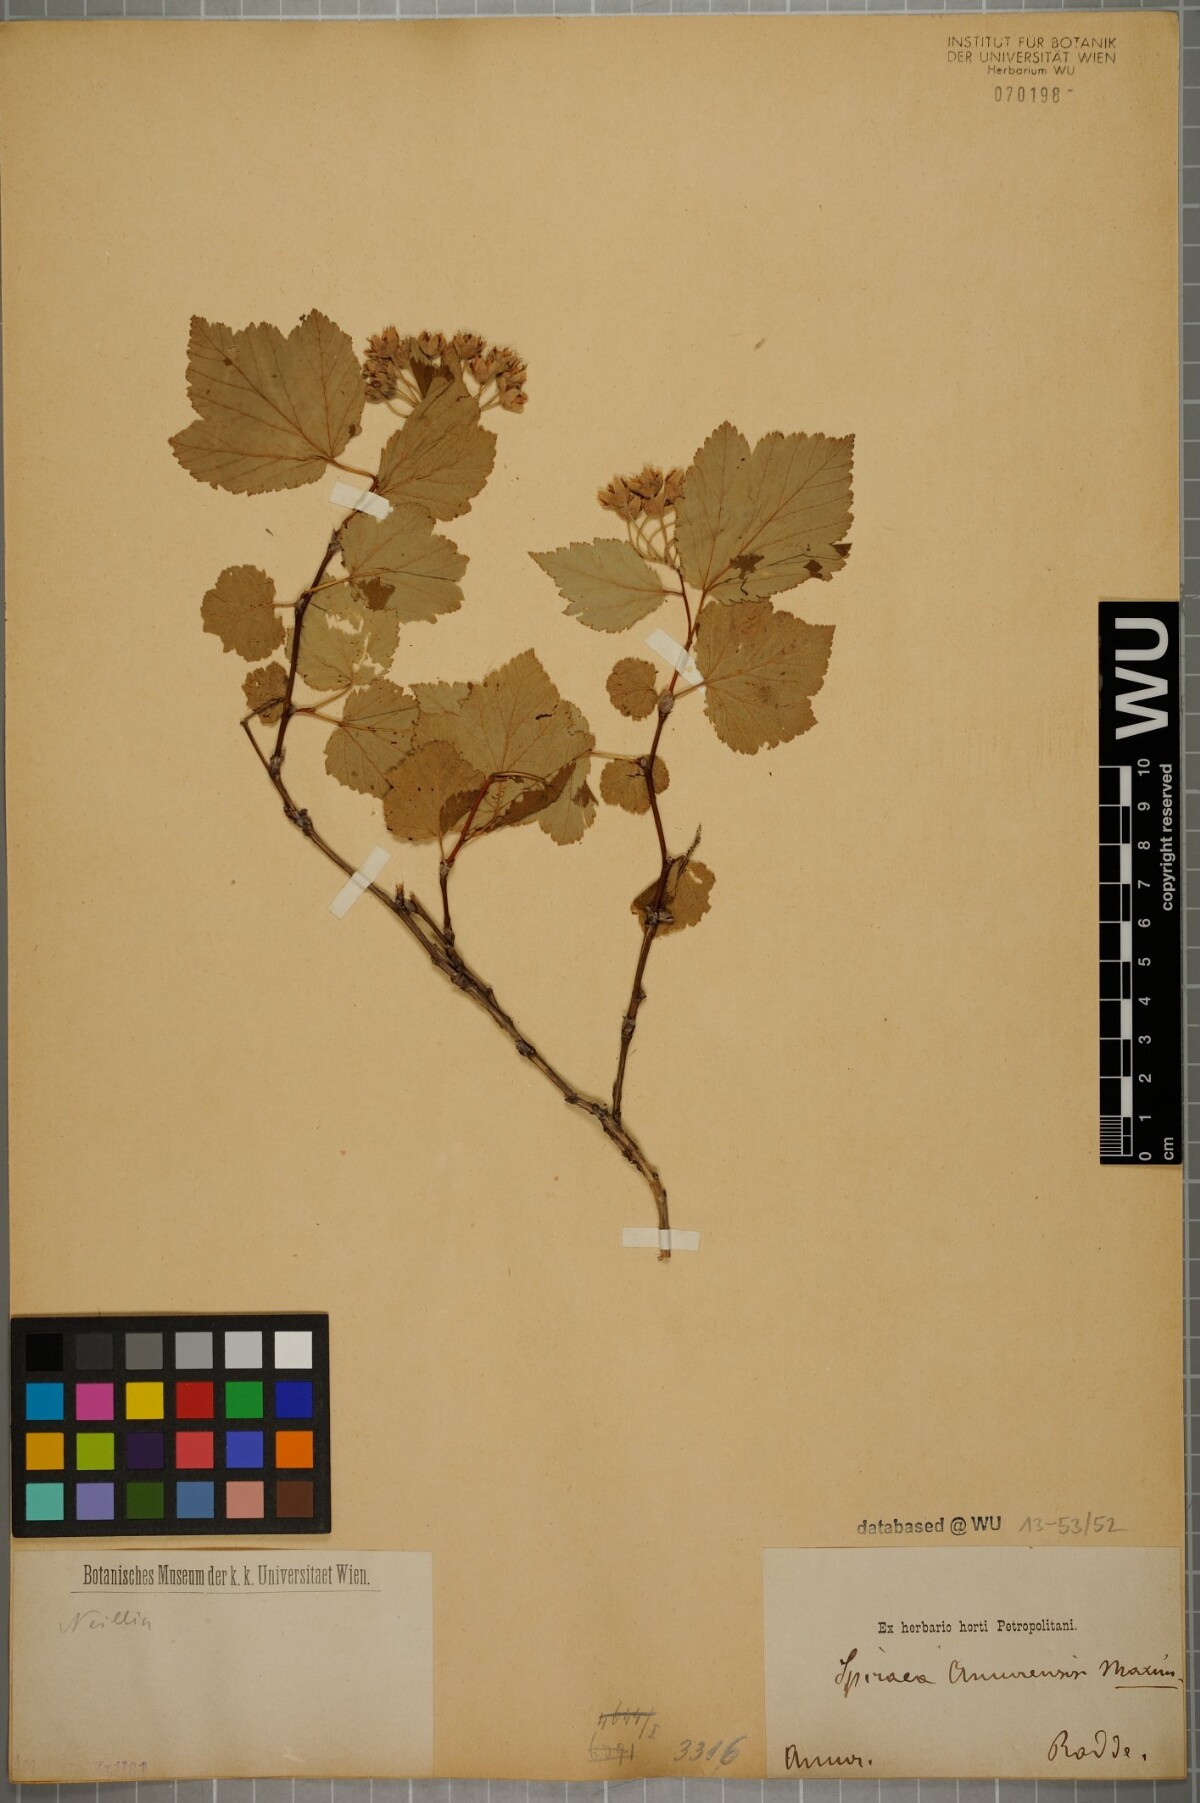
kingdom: Plantae
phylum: Tracheophyta
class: Magnoliopsida
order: Rosales
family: Rosaceae
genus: Physocarpus
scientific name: Physocarpus amurensis
